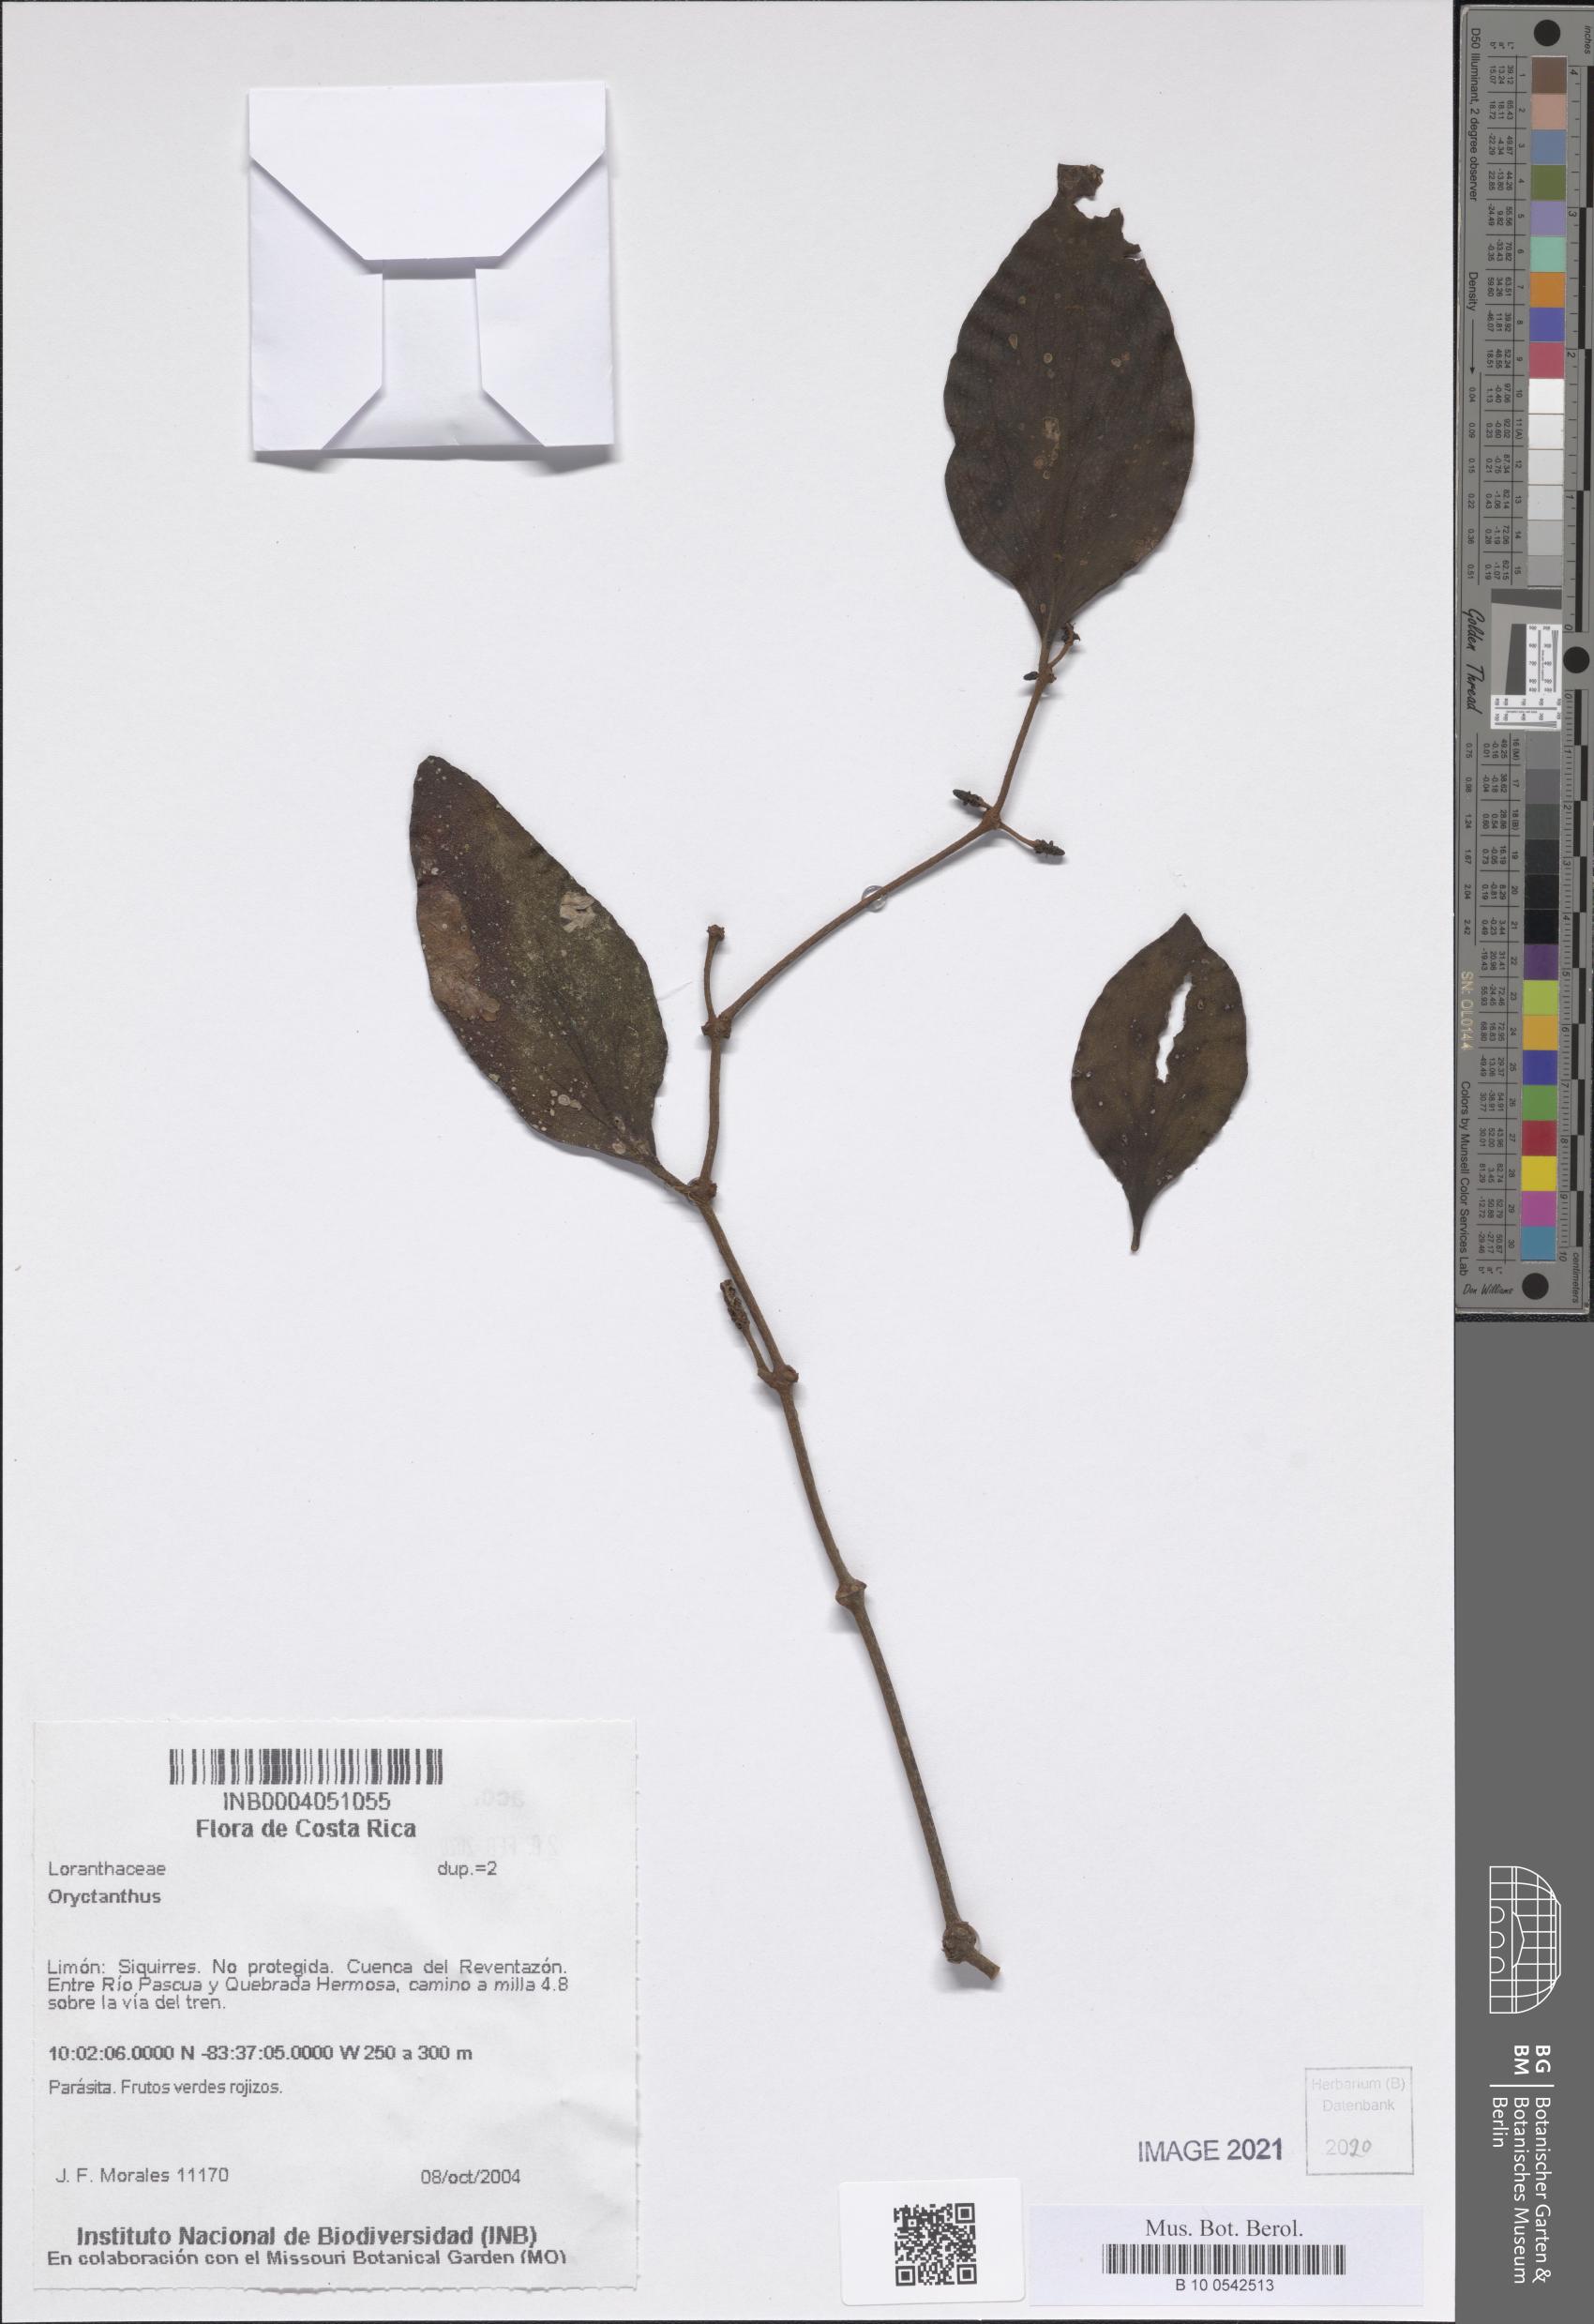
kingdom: Plantae
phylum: Tracheophyta
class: Magnoliopsida
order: Santalales
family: Loranthaceae
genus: Oryctanthus
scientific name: Oryctanthus
